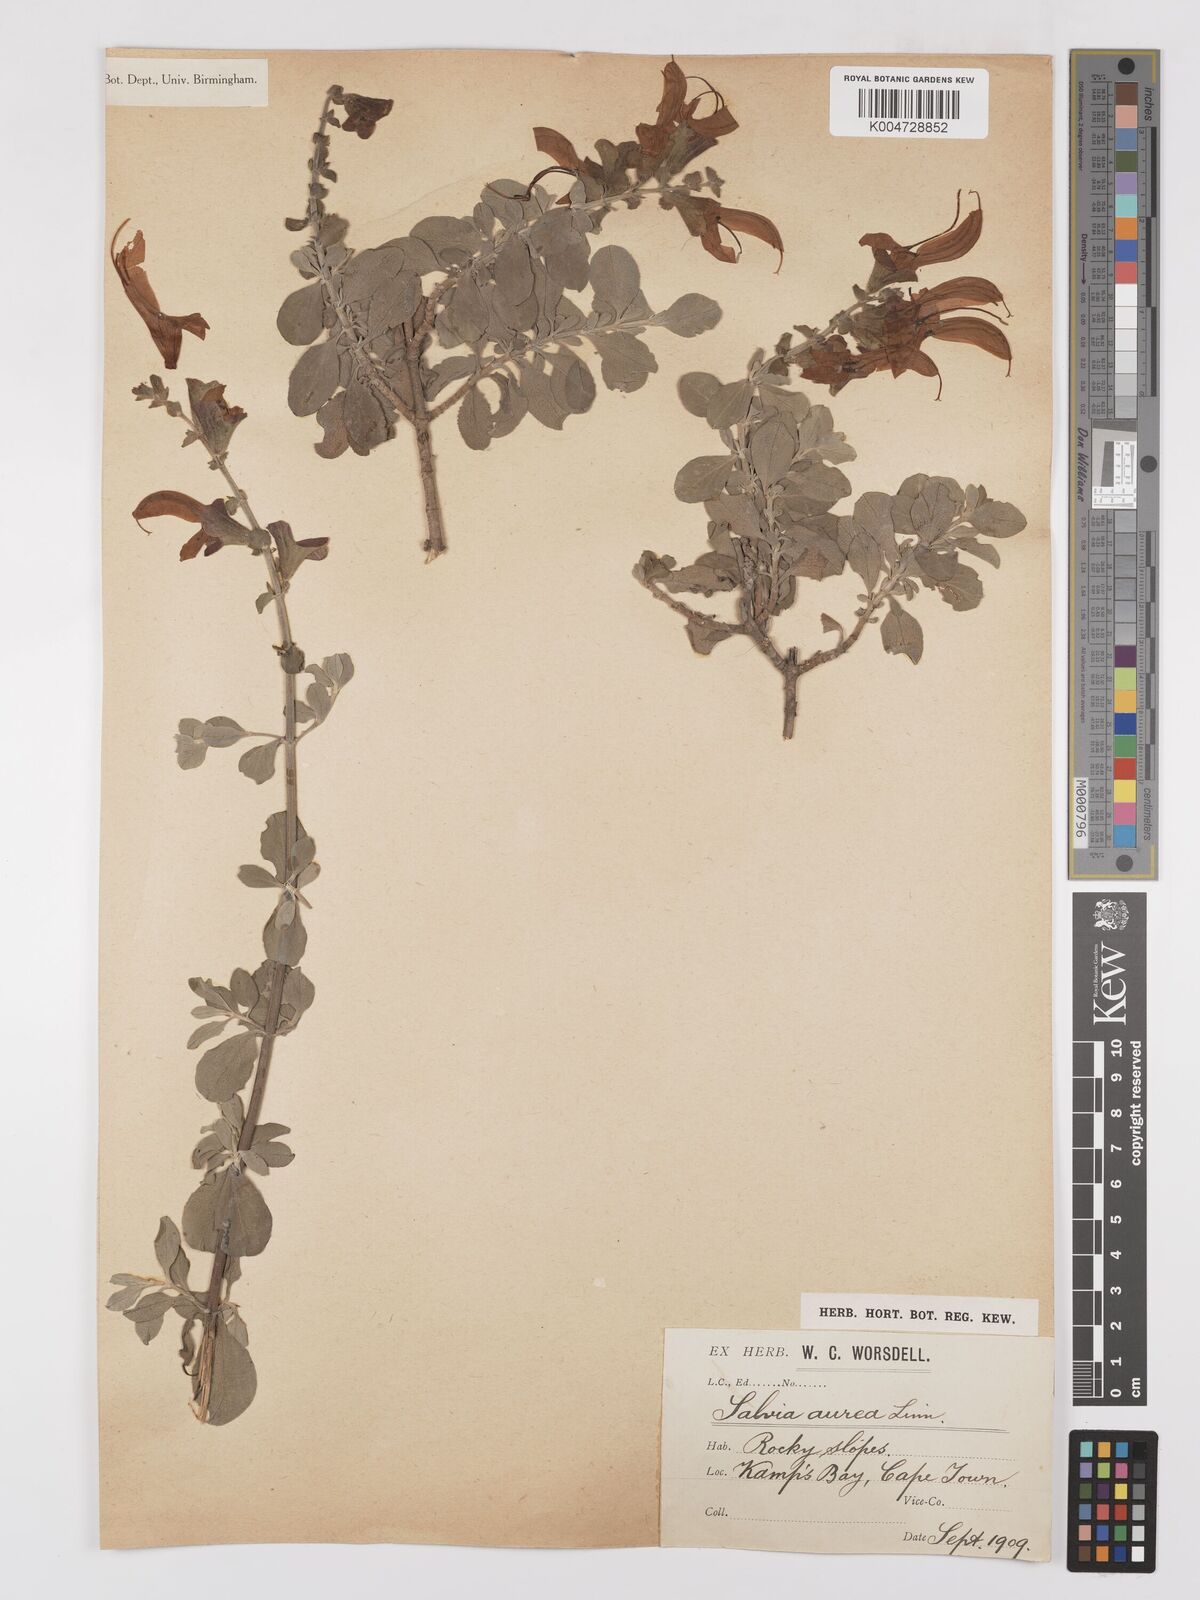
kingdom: Plantae
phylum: Tracheophyta
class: Magnoliopsida
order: Lamiales
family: Lamiaceae
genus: Salvia
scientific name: Salvia aurea
